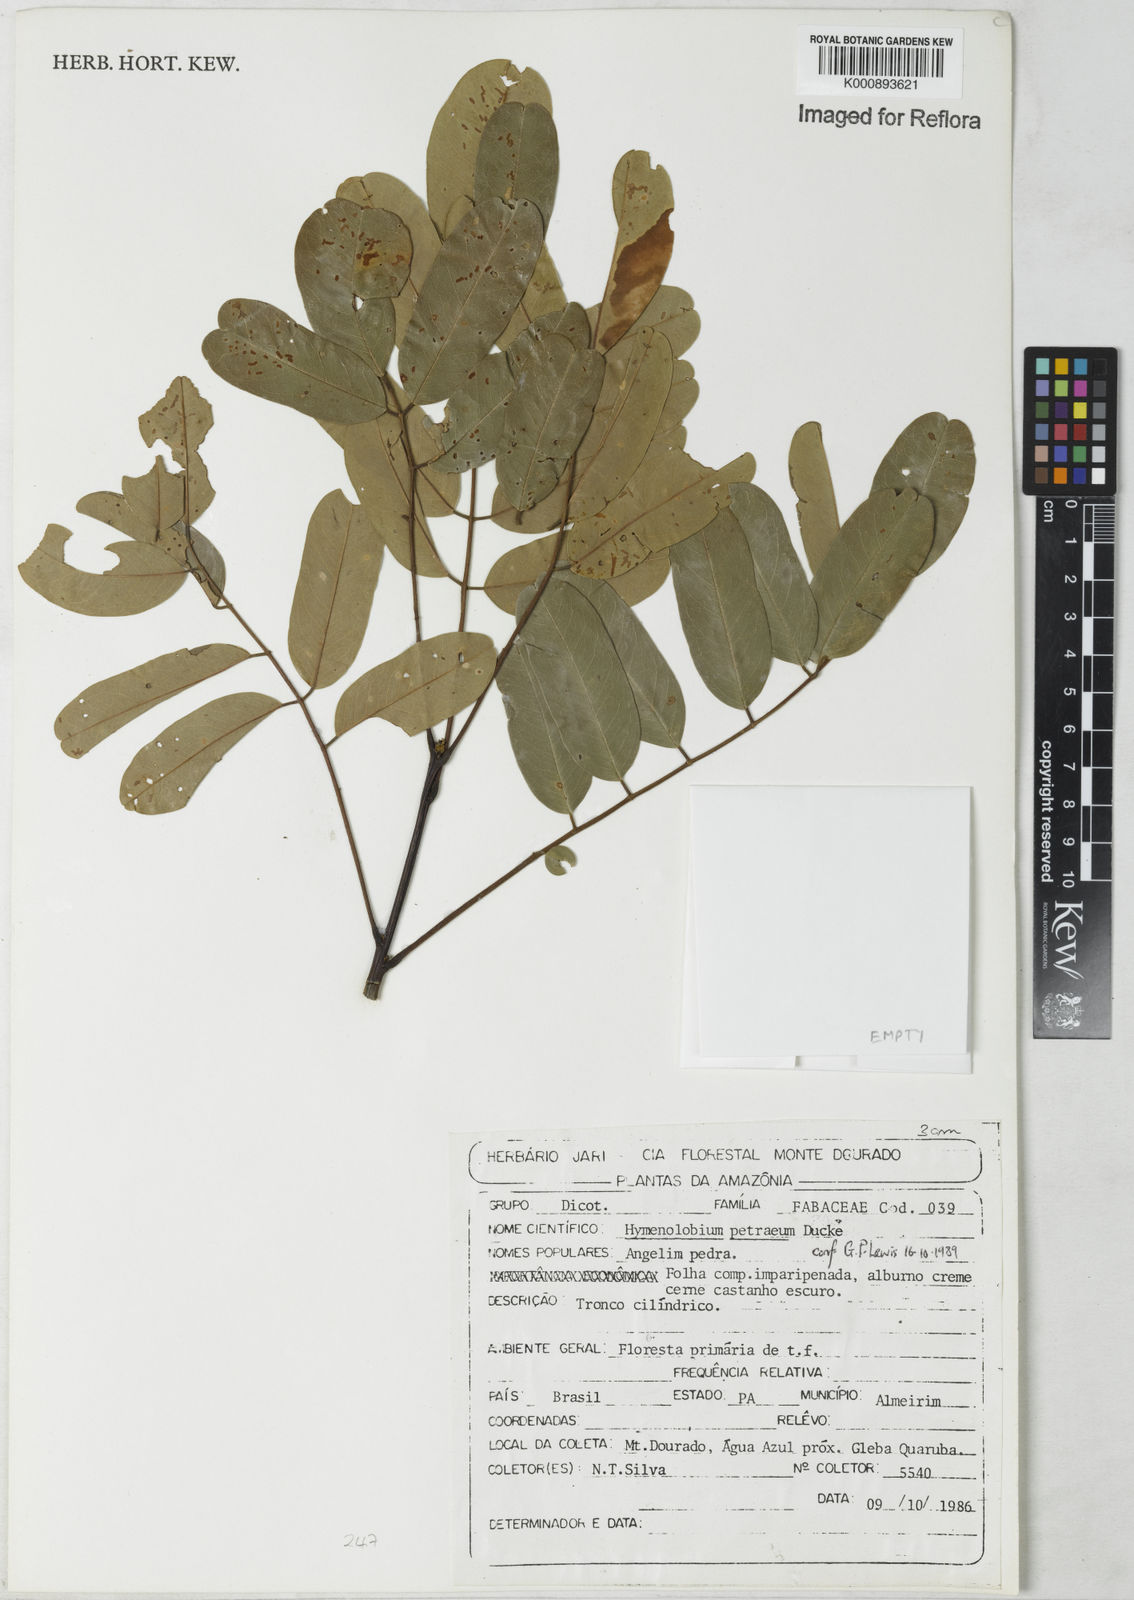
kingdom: Plantae
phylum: Tracheophyta
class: Magnoliopsida
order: Fabales
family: Fabaceae
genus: Hymenolobium
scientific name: Hymenolobium petraeum
